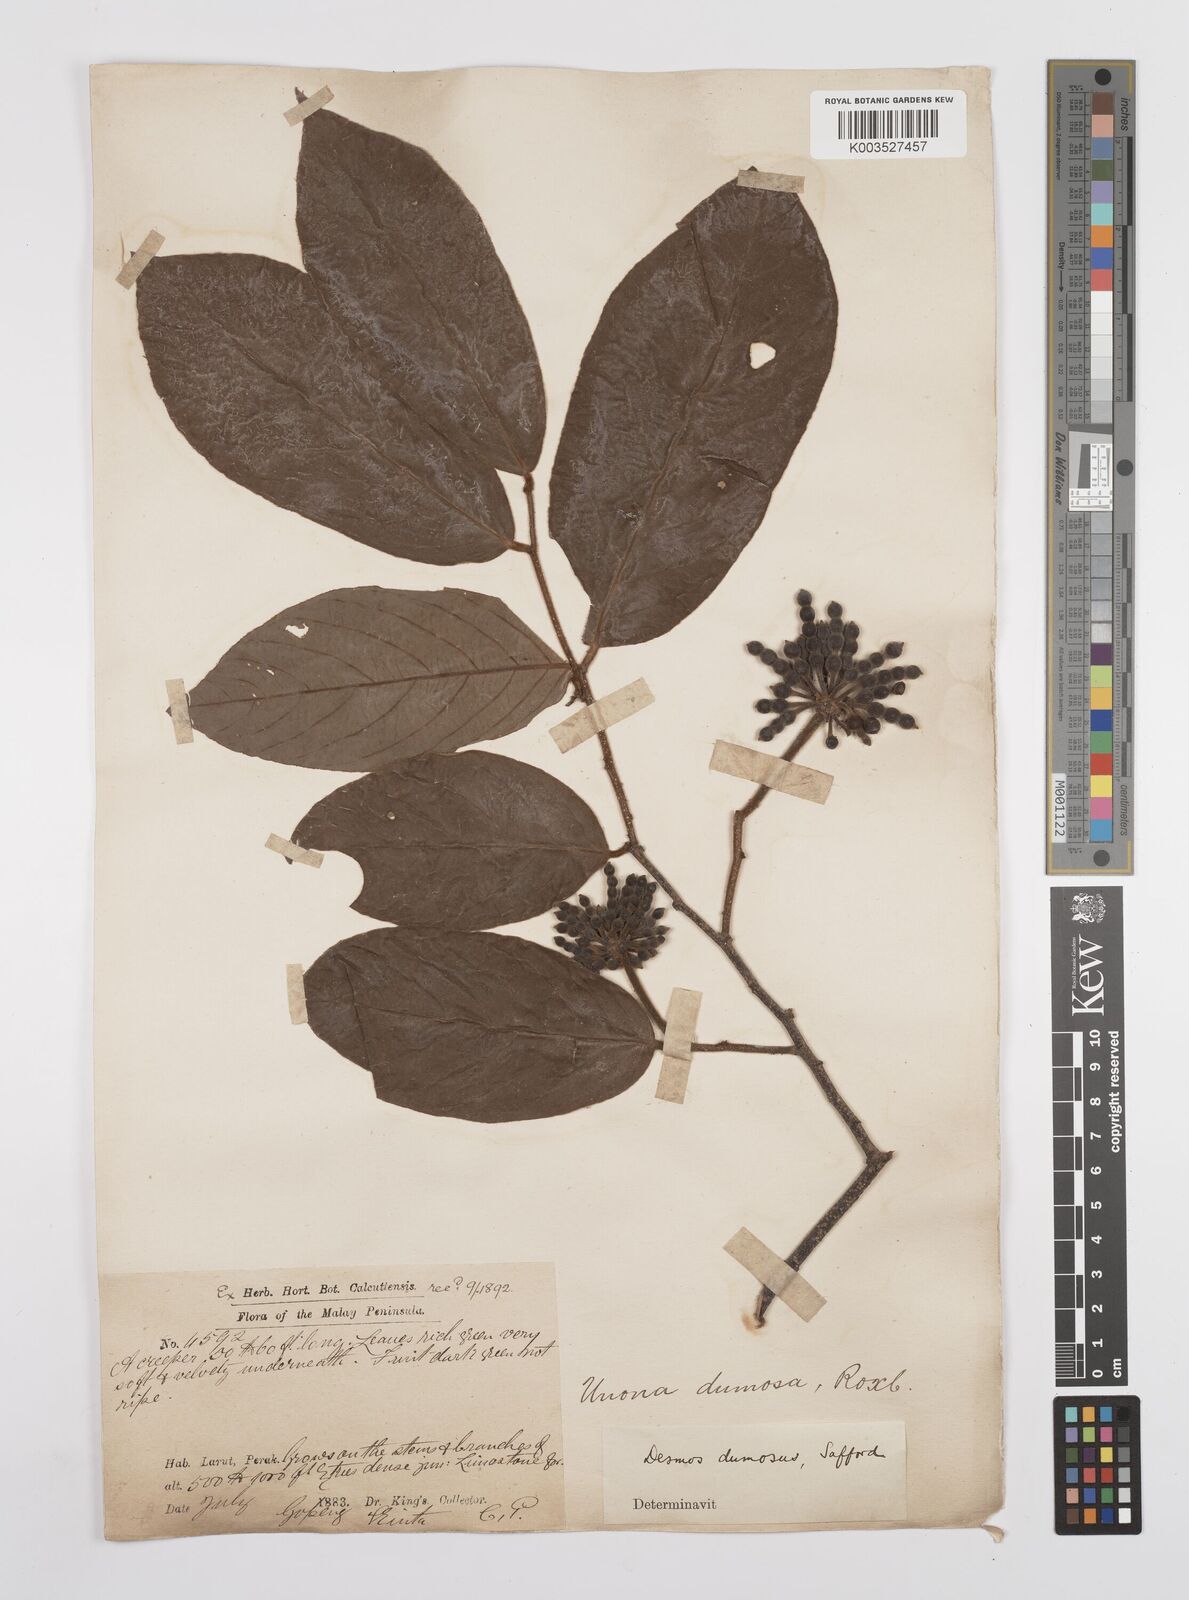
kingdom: Plantae
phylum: Tracheophyta
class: Magnoliopsida
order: Magnoliales
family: Annonaceae
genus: Desmos
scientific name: Desmos dumosus
